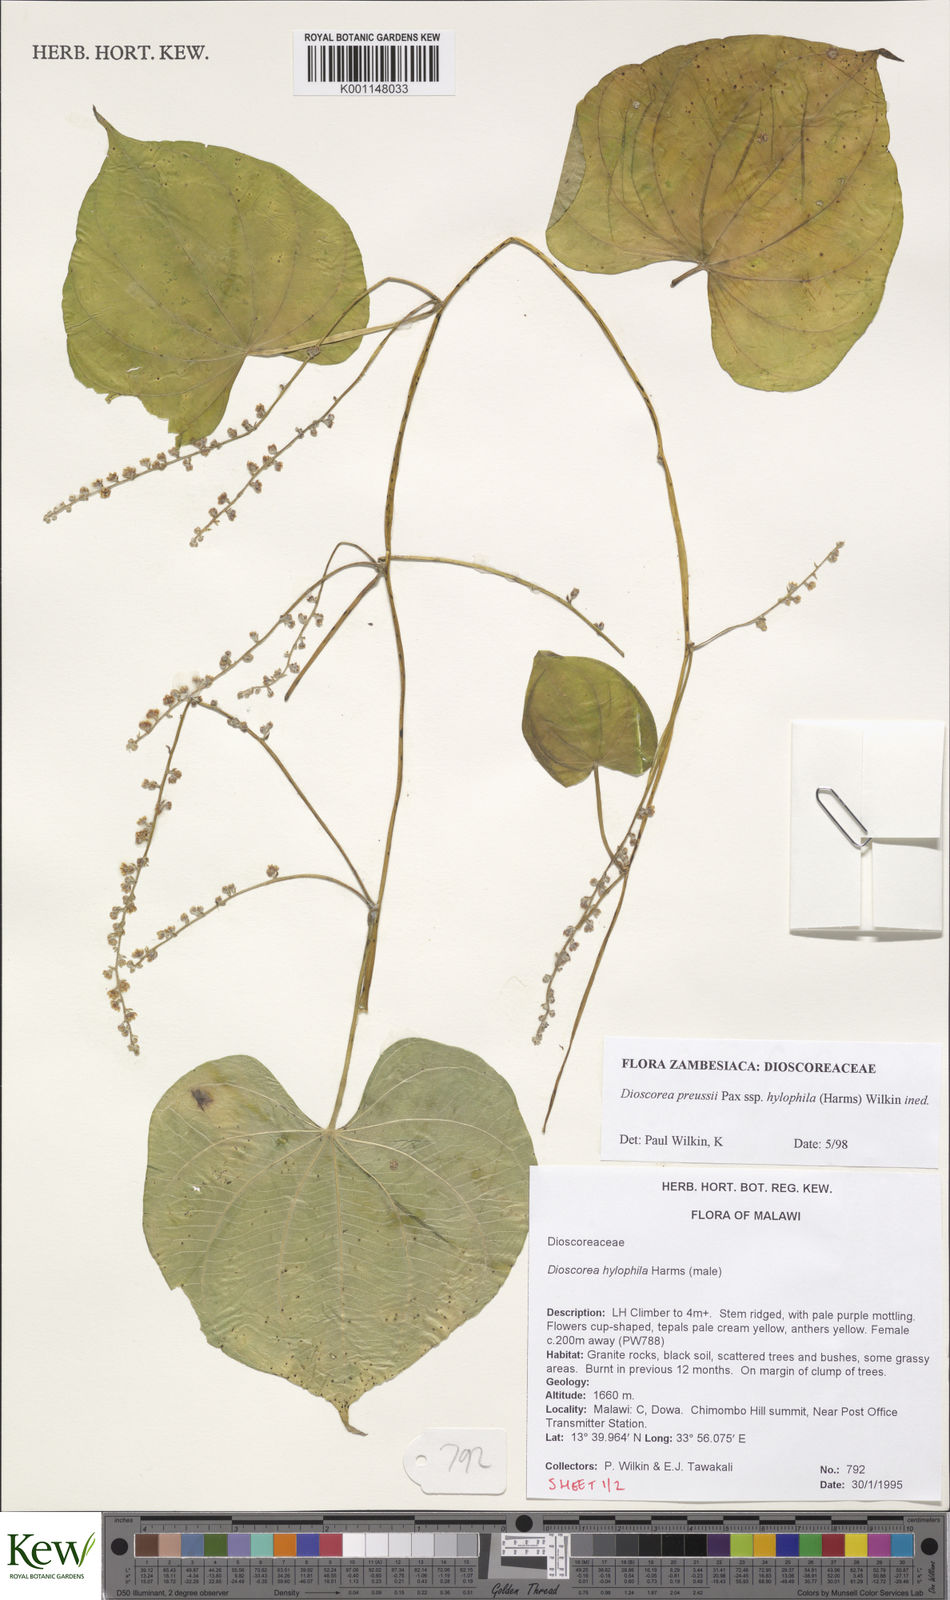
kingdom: Plantae
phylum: Tracheophyta
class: Liliopsida
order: Dioscoreales
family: Dioscoreaceae
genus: Dioscorea
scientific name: Dioscorea
